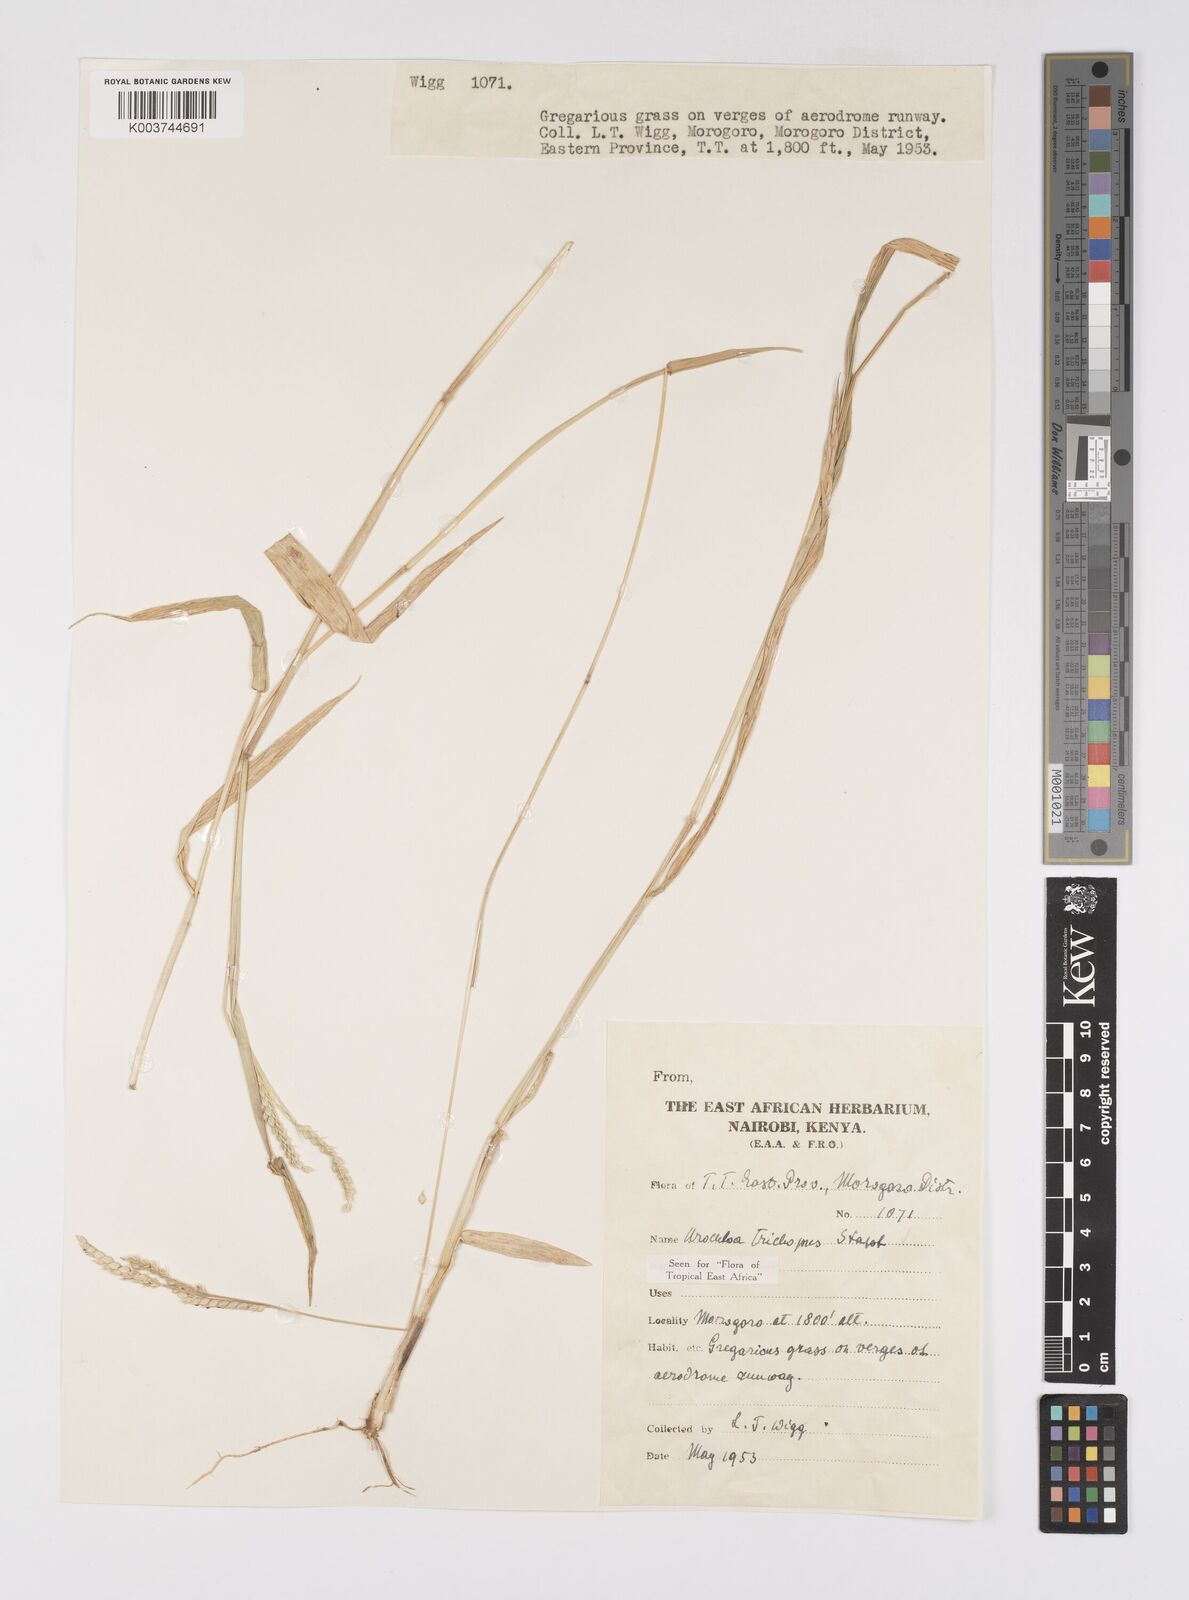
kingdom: Plantae
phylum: Tracheophyta
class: Liliopsida
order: Poales
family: Poaceae
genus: Urochloa
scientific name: Urochloa trichopus
